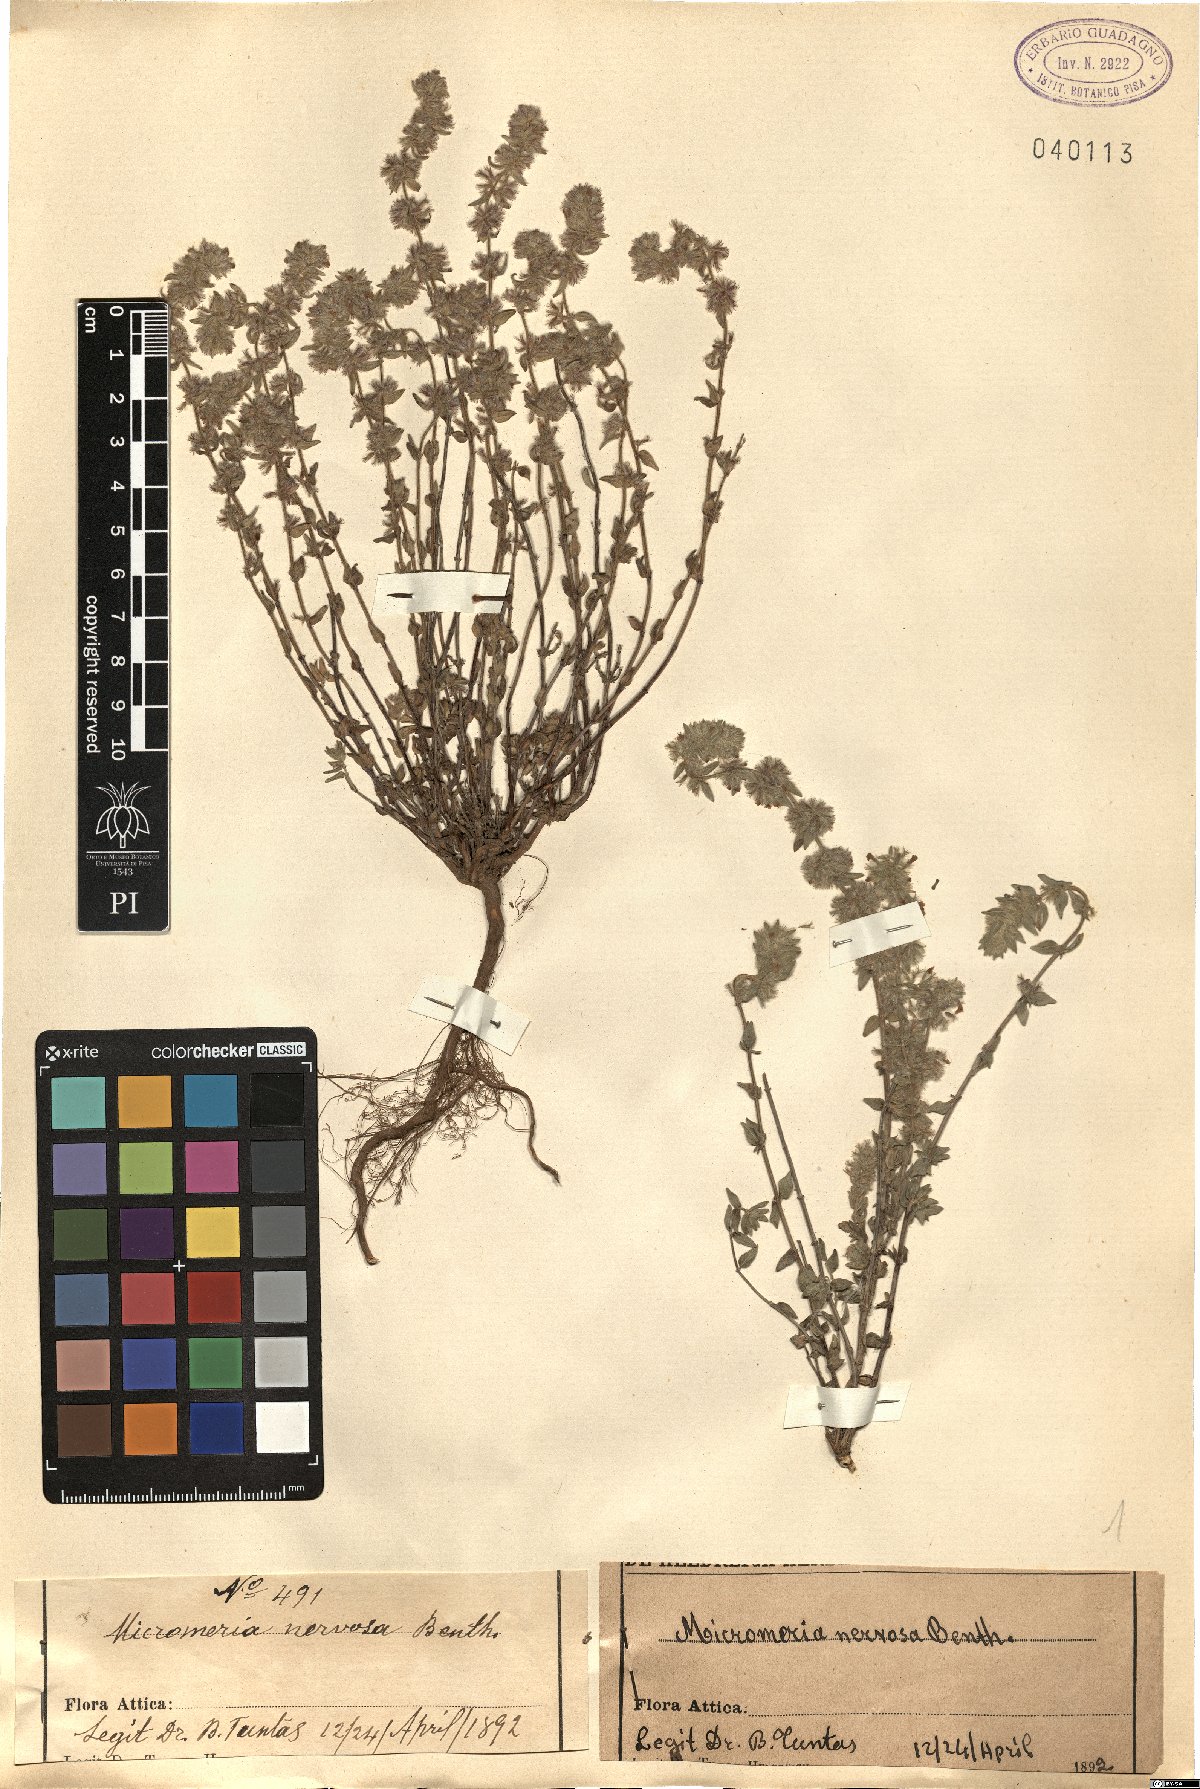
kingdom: Plantae
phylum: Tracheophyta
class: Magnoliopsida
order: Lamiales
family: Lamiaceae
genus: Micromeria
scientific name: Micromeria nervosa
